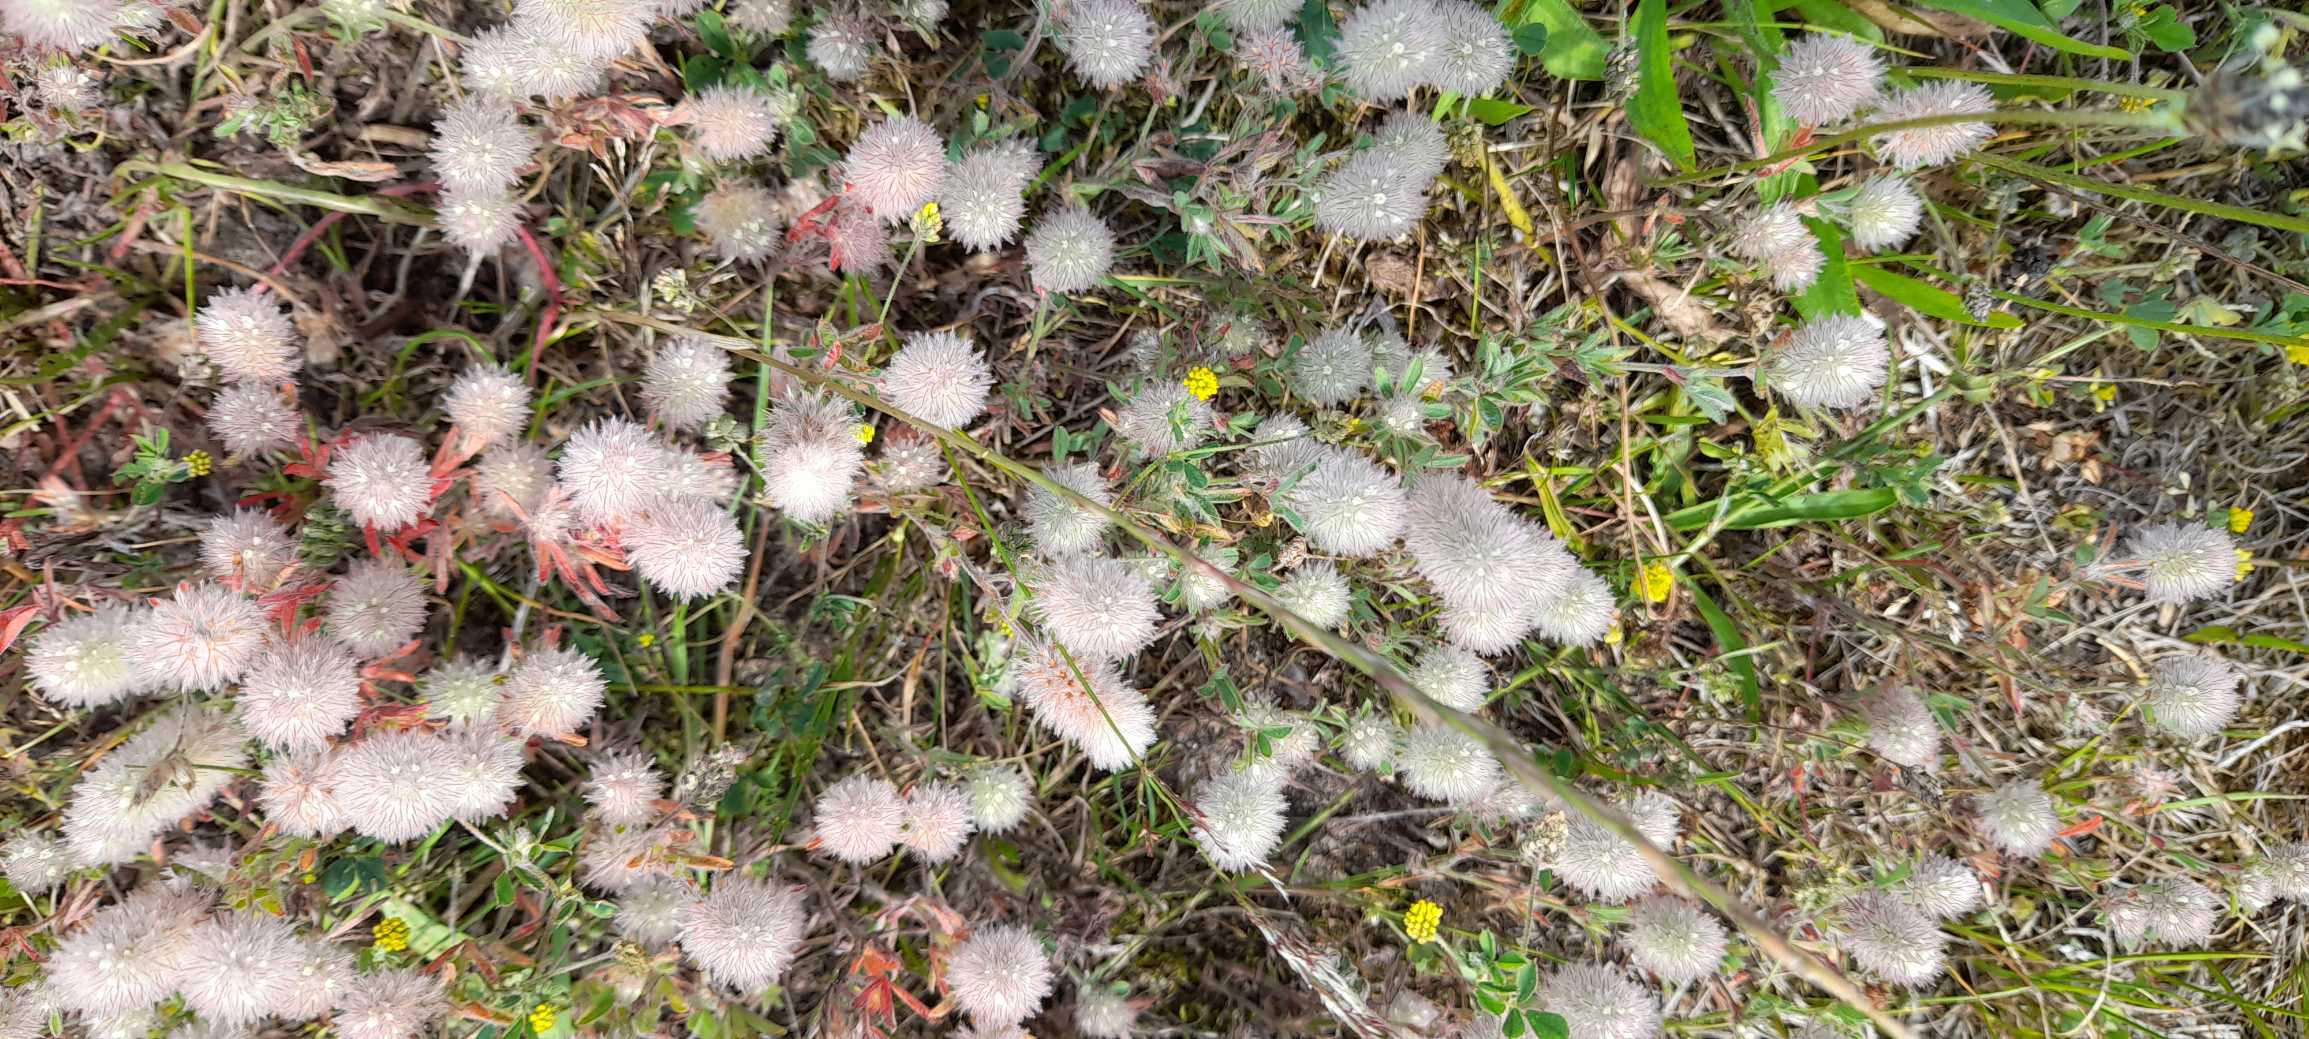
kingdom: Plantae
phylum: Tracheophyta
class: Magnoliopsida
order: Fabales
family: Fabaceae
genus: Trifolium
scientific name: Trifolium arvense
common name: Hare-kløver
